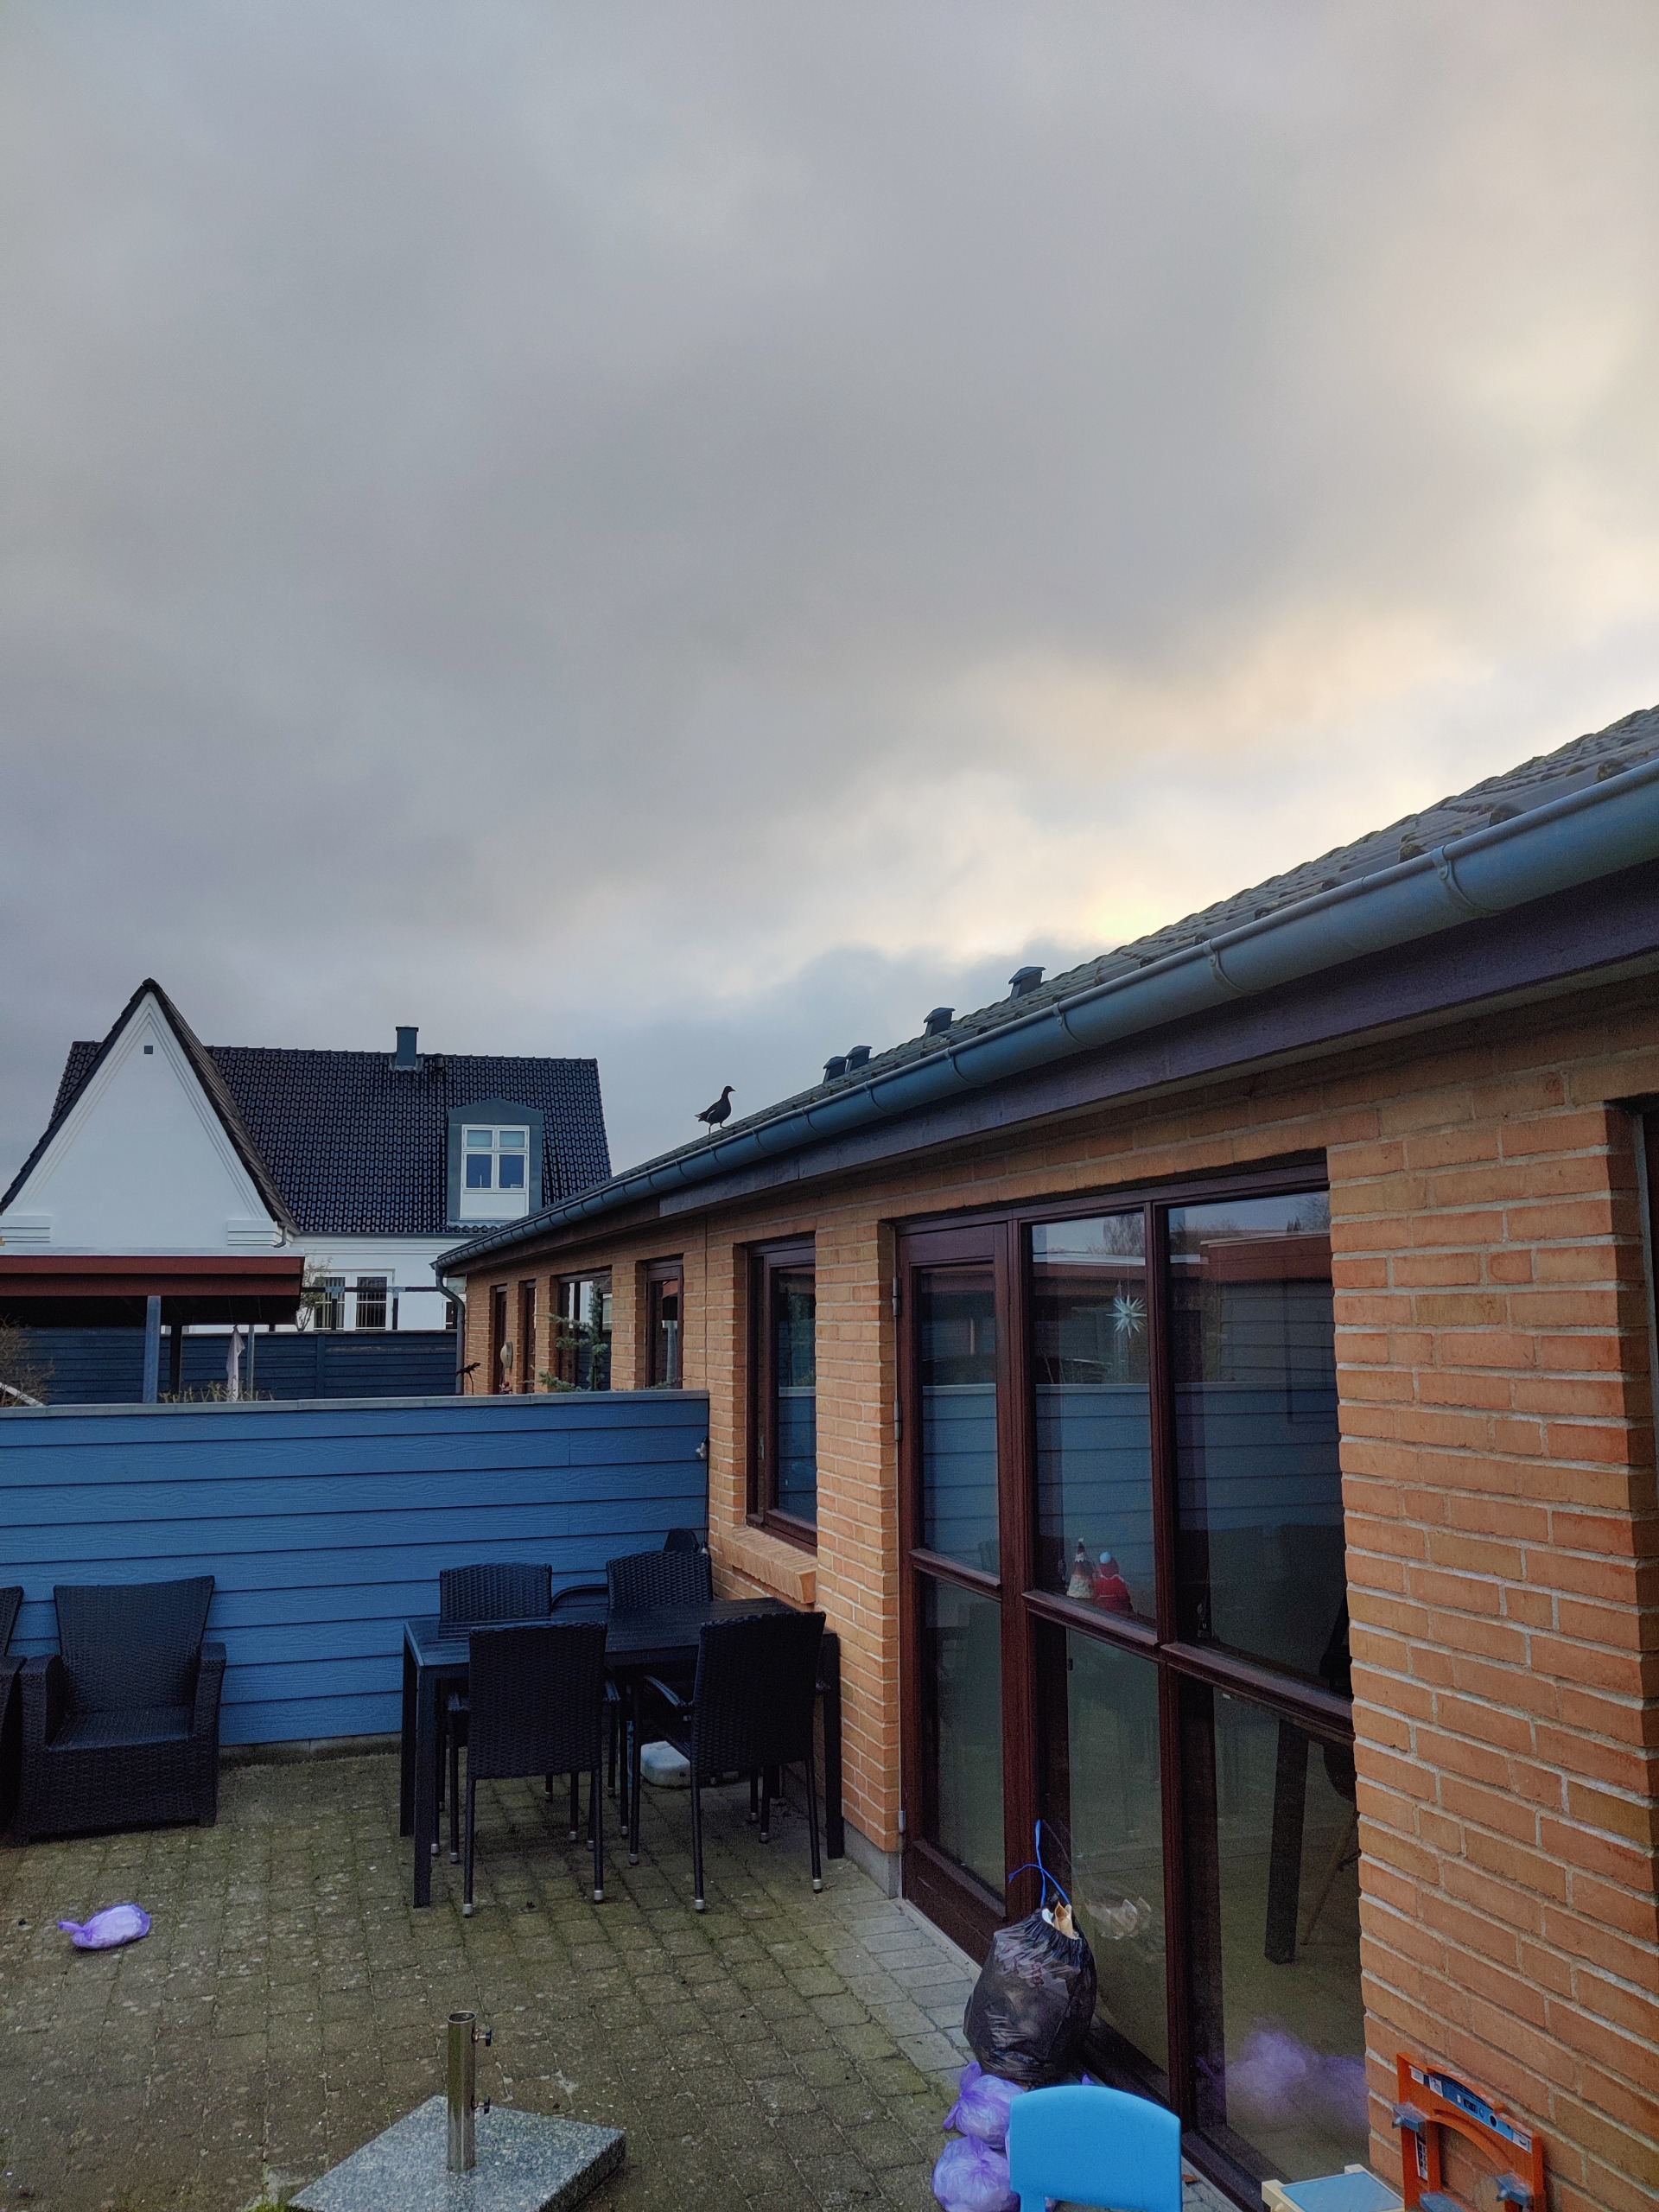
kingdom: Animalia
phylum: Chordata
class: Aves
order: Gruiformes
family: Rallidae
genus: Gallinula
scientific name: Gallinula chloropus
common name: Grønbenet rørhøne
